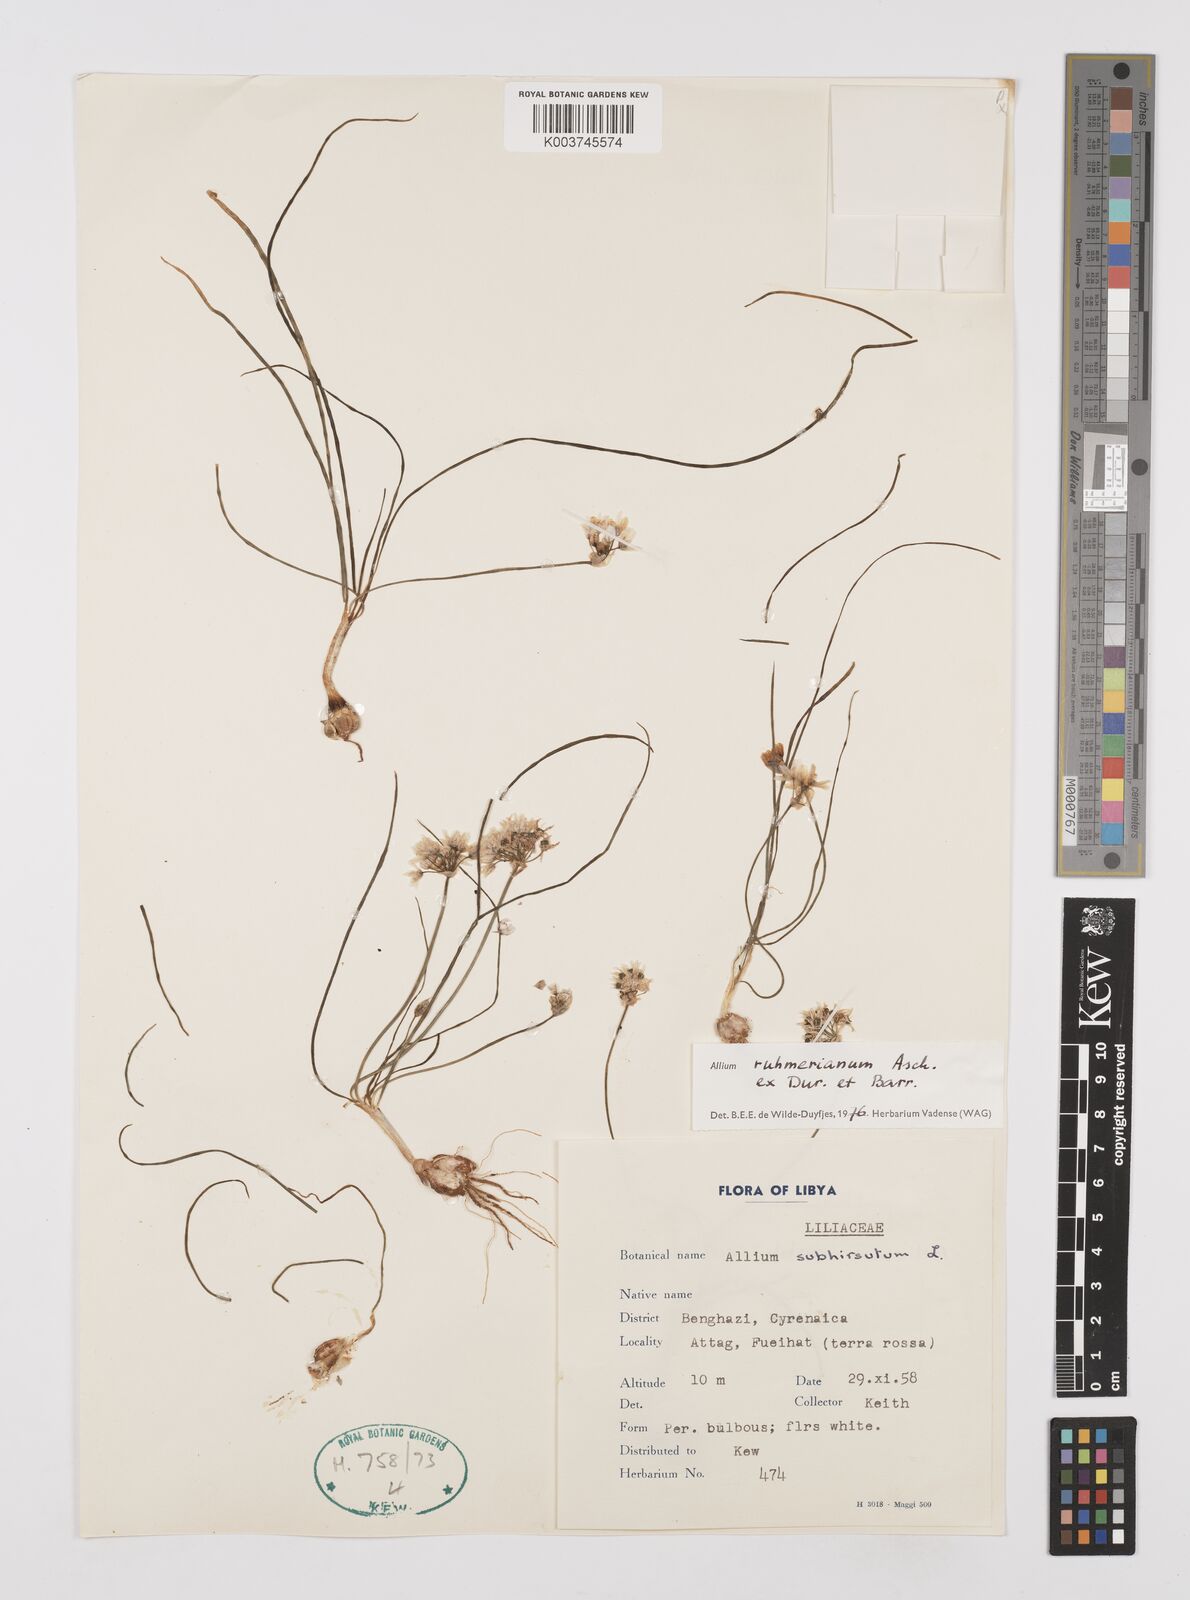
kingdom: Plantae
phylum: Tracheophyta
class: Liliopsida
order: Asparagales
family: Amaryllidaceae
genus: Allium
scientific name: Allium ruhmerianum
